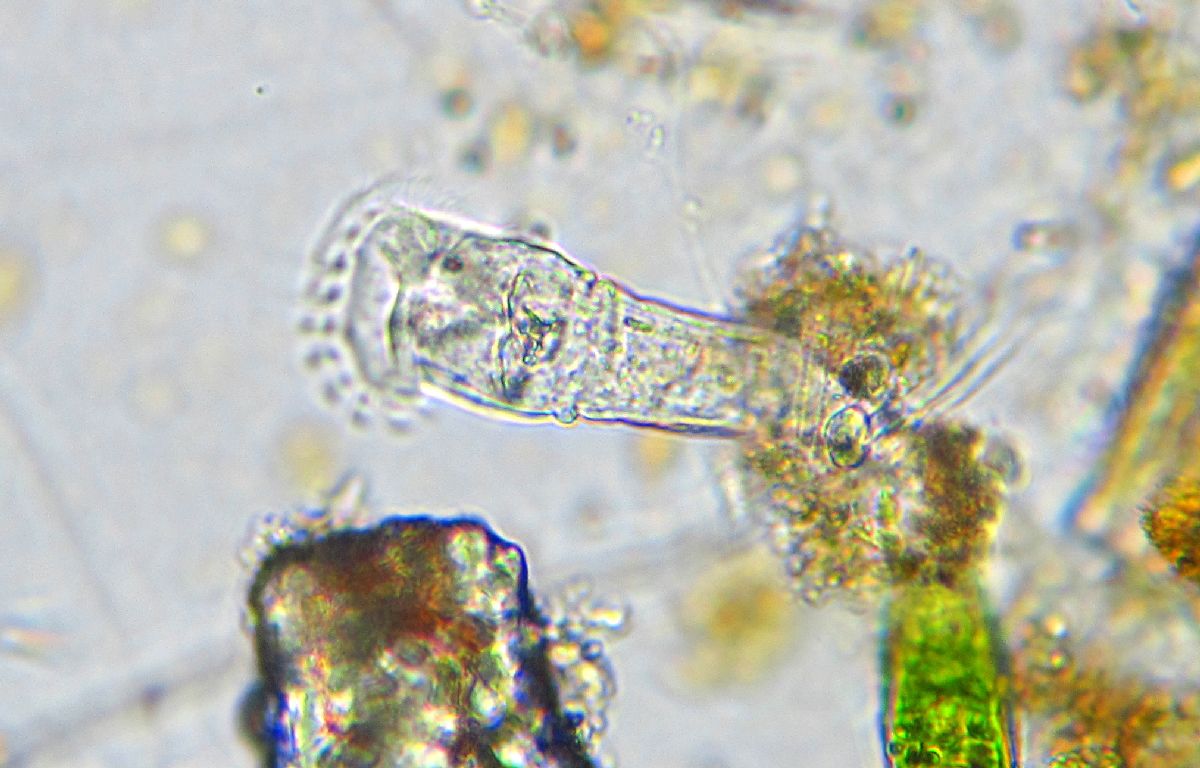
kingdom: Animalia
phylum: Rotifera
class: Eurotatoria
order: Collothecacea
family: Collothecidae
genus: Collotheca
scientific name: Collotheca ornata
